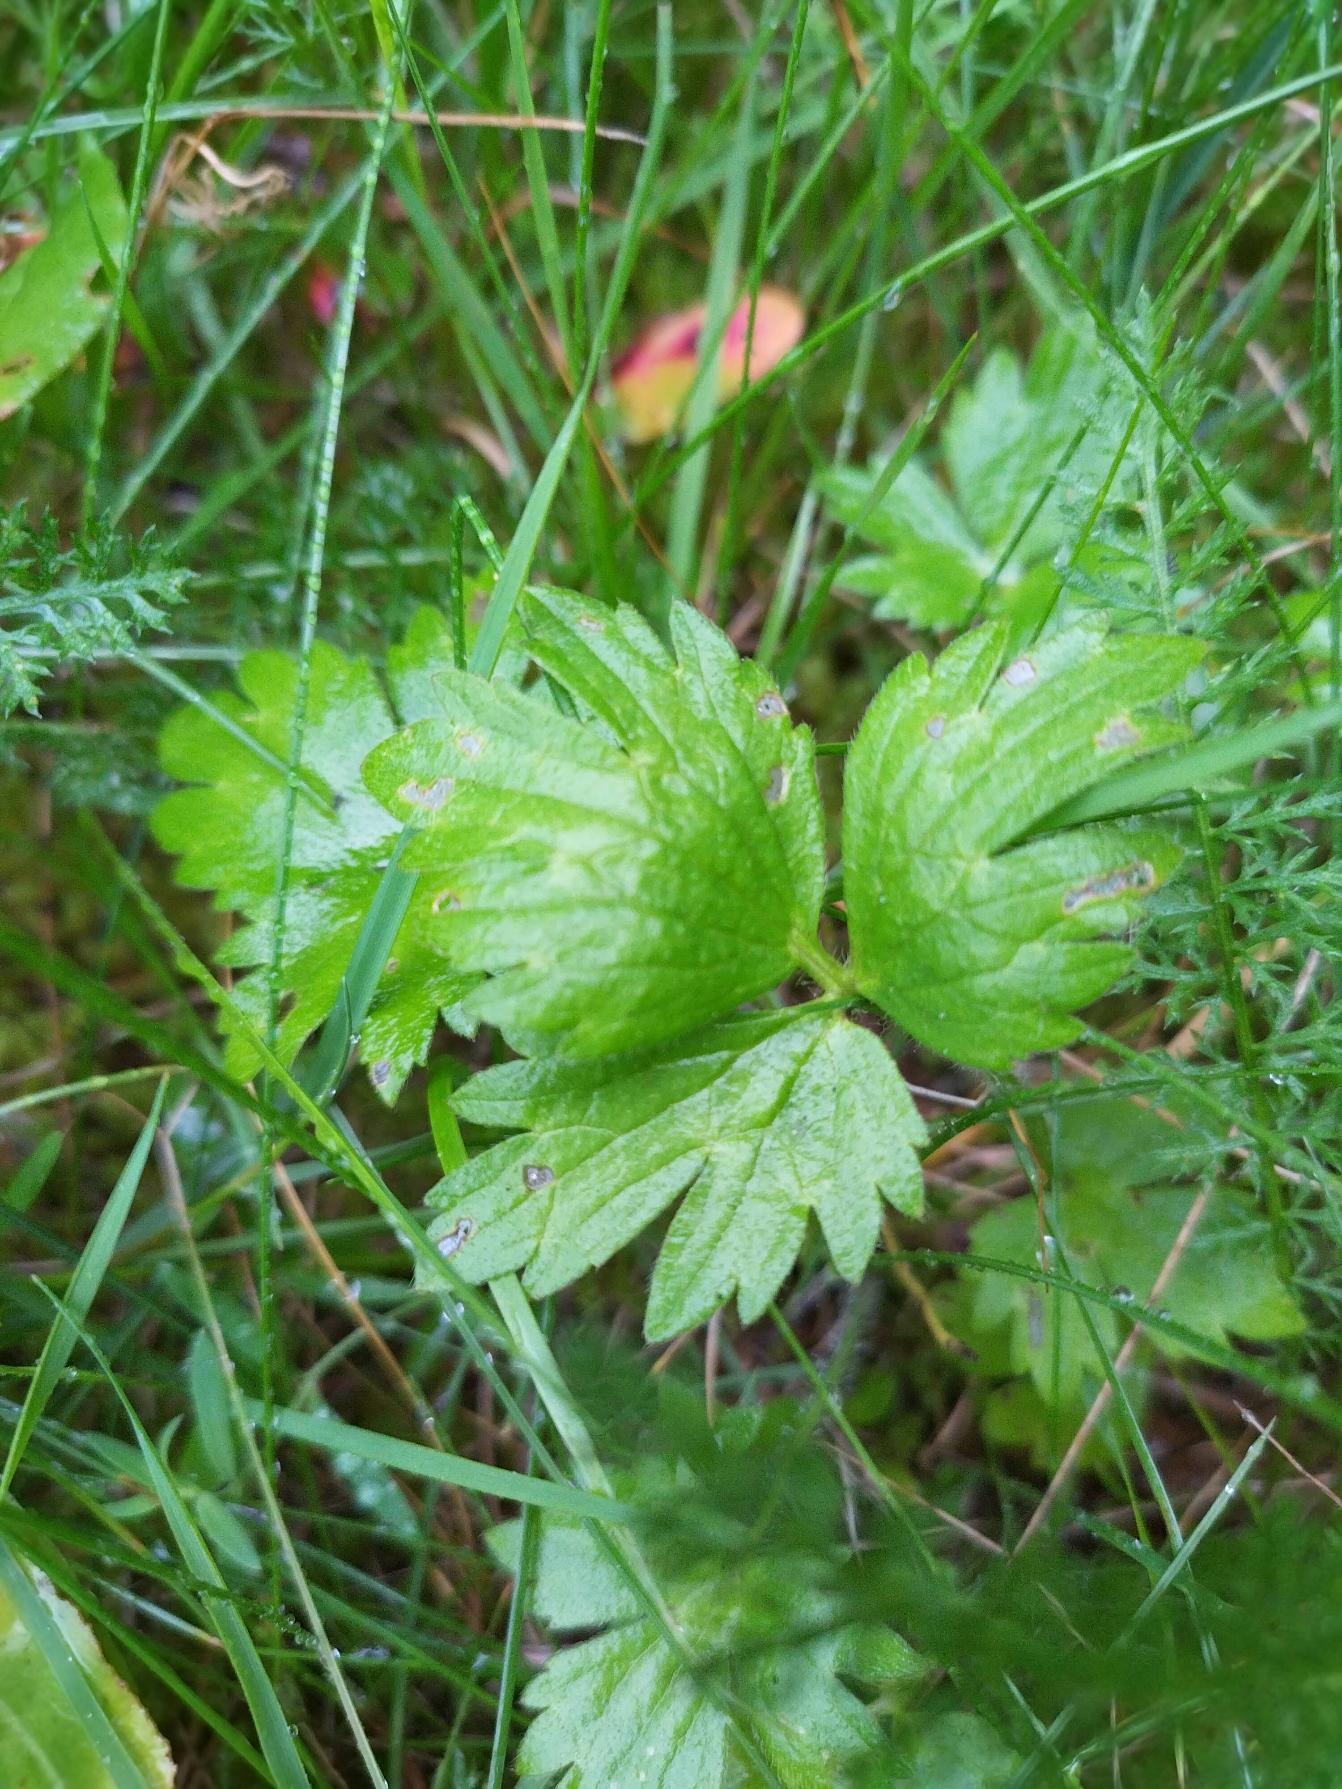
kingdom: Plantae
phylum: Tracheophyta
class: Magnoliopsida
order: Ranunculales
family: Ranunculaceae
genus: Ranunculus
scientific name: Ranunculus repens
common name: Lav ranunkel
